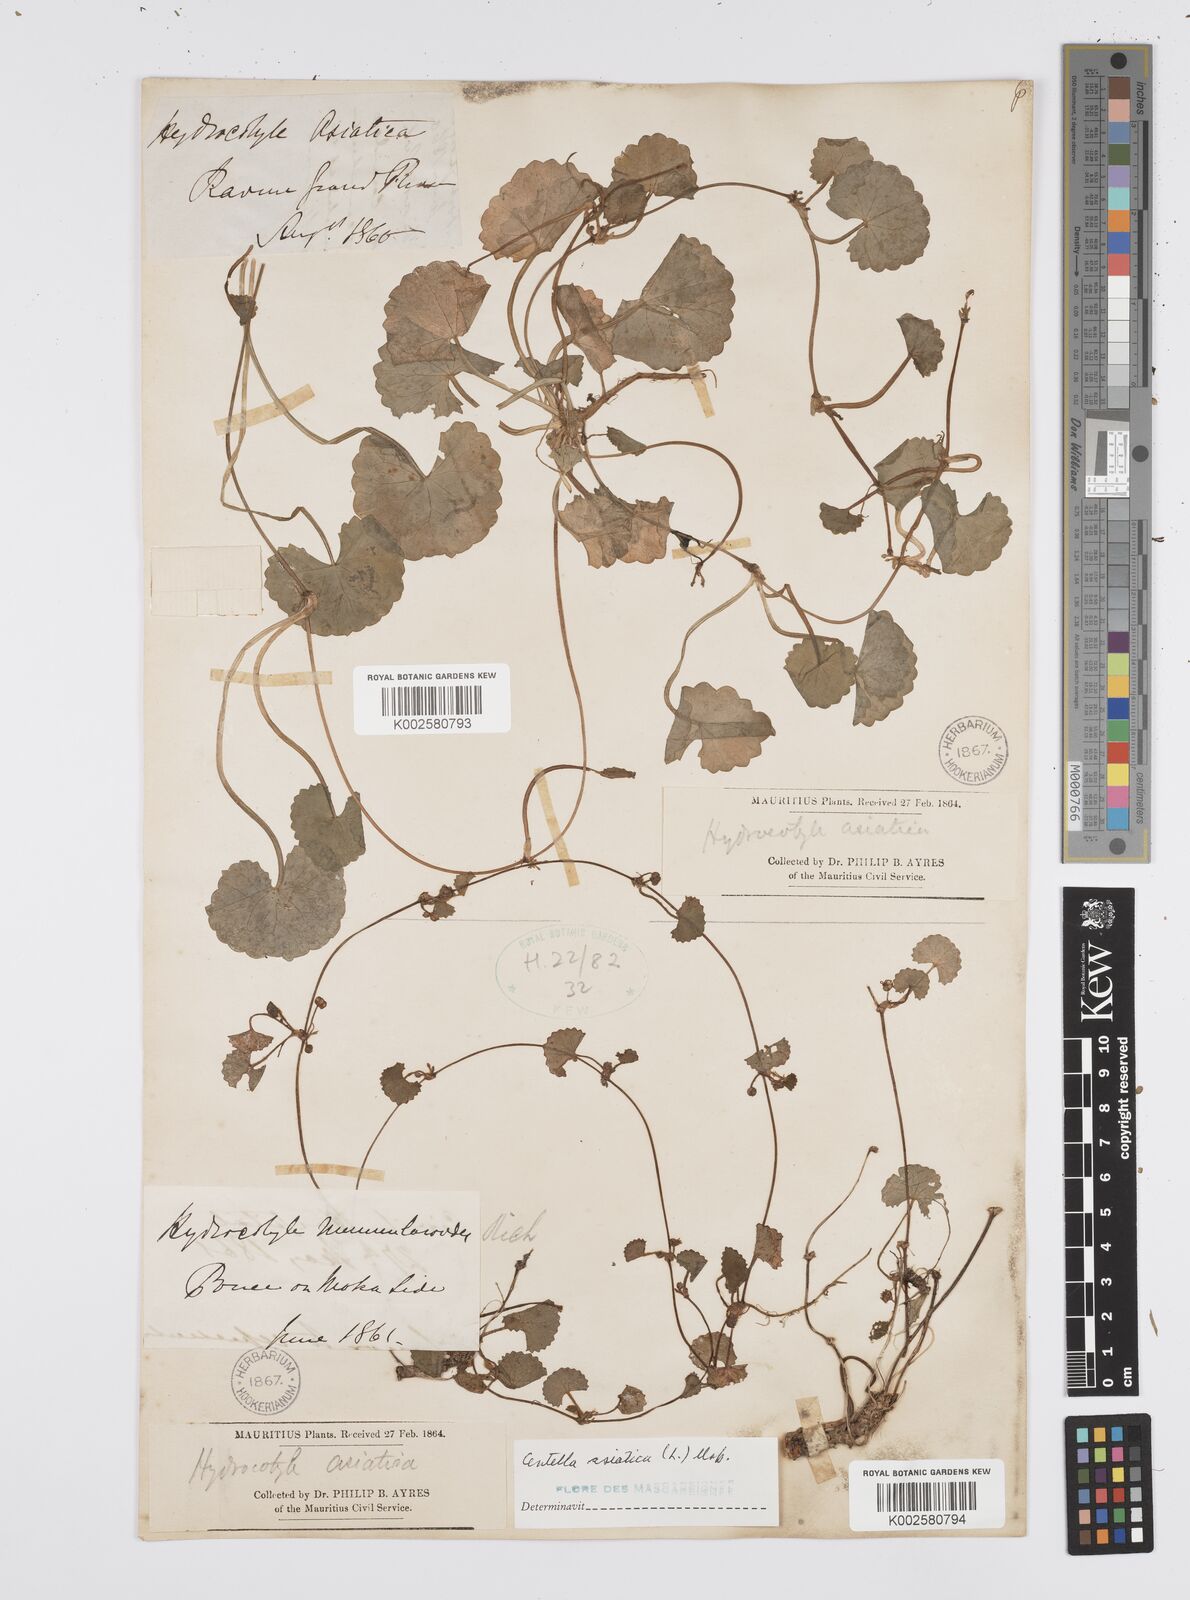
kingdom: Plantae
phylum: Tracheophyta
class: Magnoliopsida
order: Apiales
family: Apiaceae
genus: Centella
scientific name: Centella asiatica
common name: Spadeleaf
